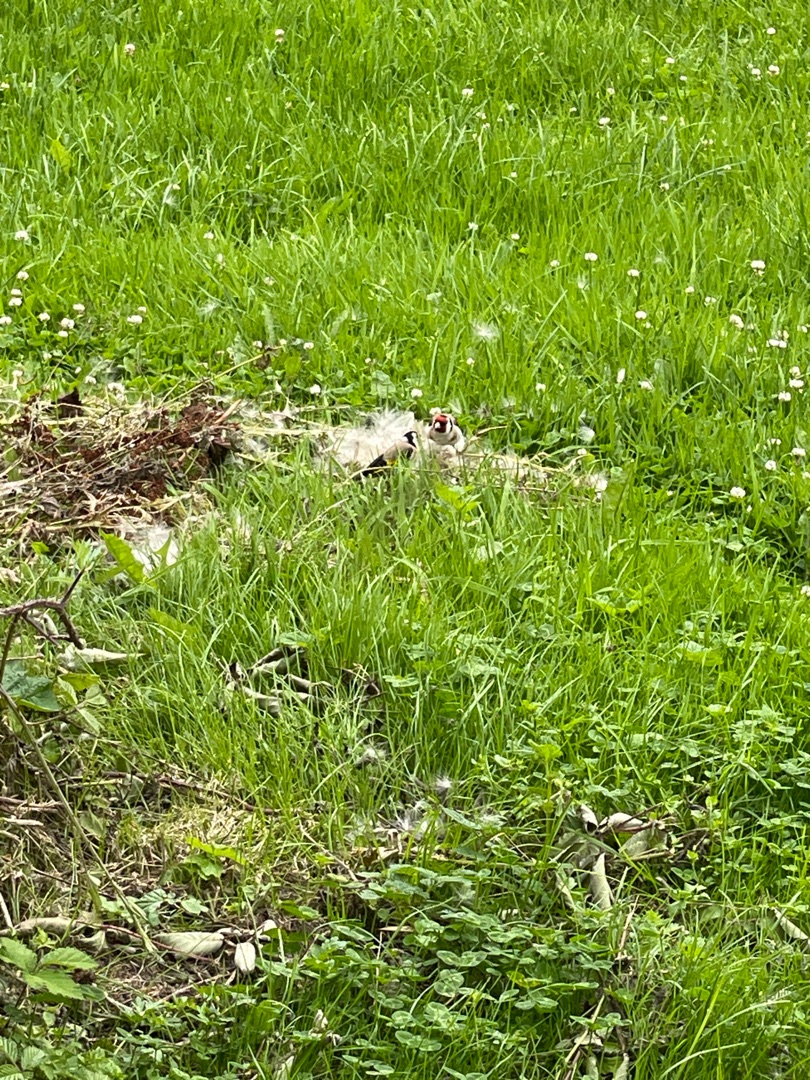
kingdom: Animalia
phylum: Chordata
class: Aves
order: Passeriformes
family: Fringillidae
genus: Carduelis
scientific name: Carduelis carduelis
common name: Stillits
